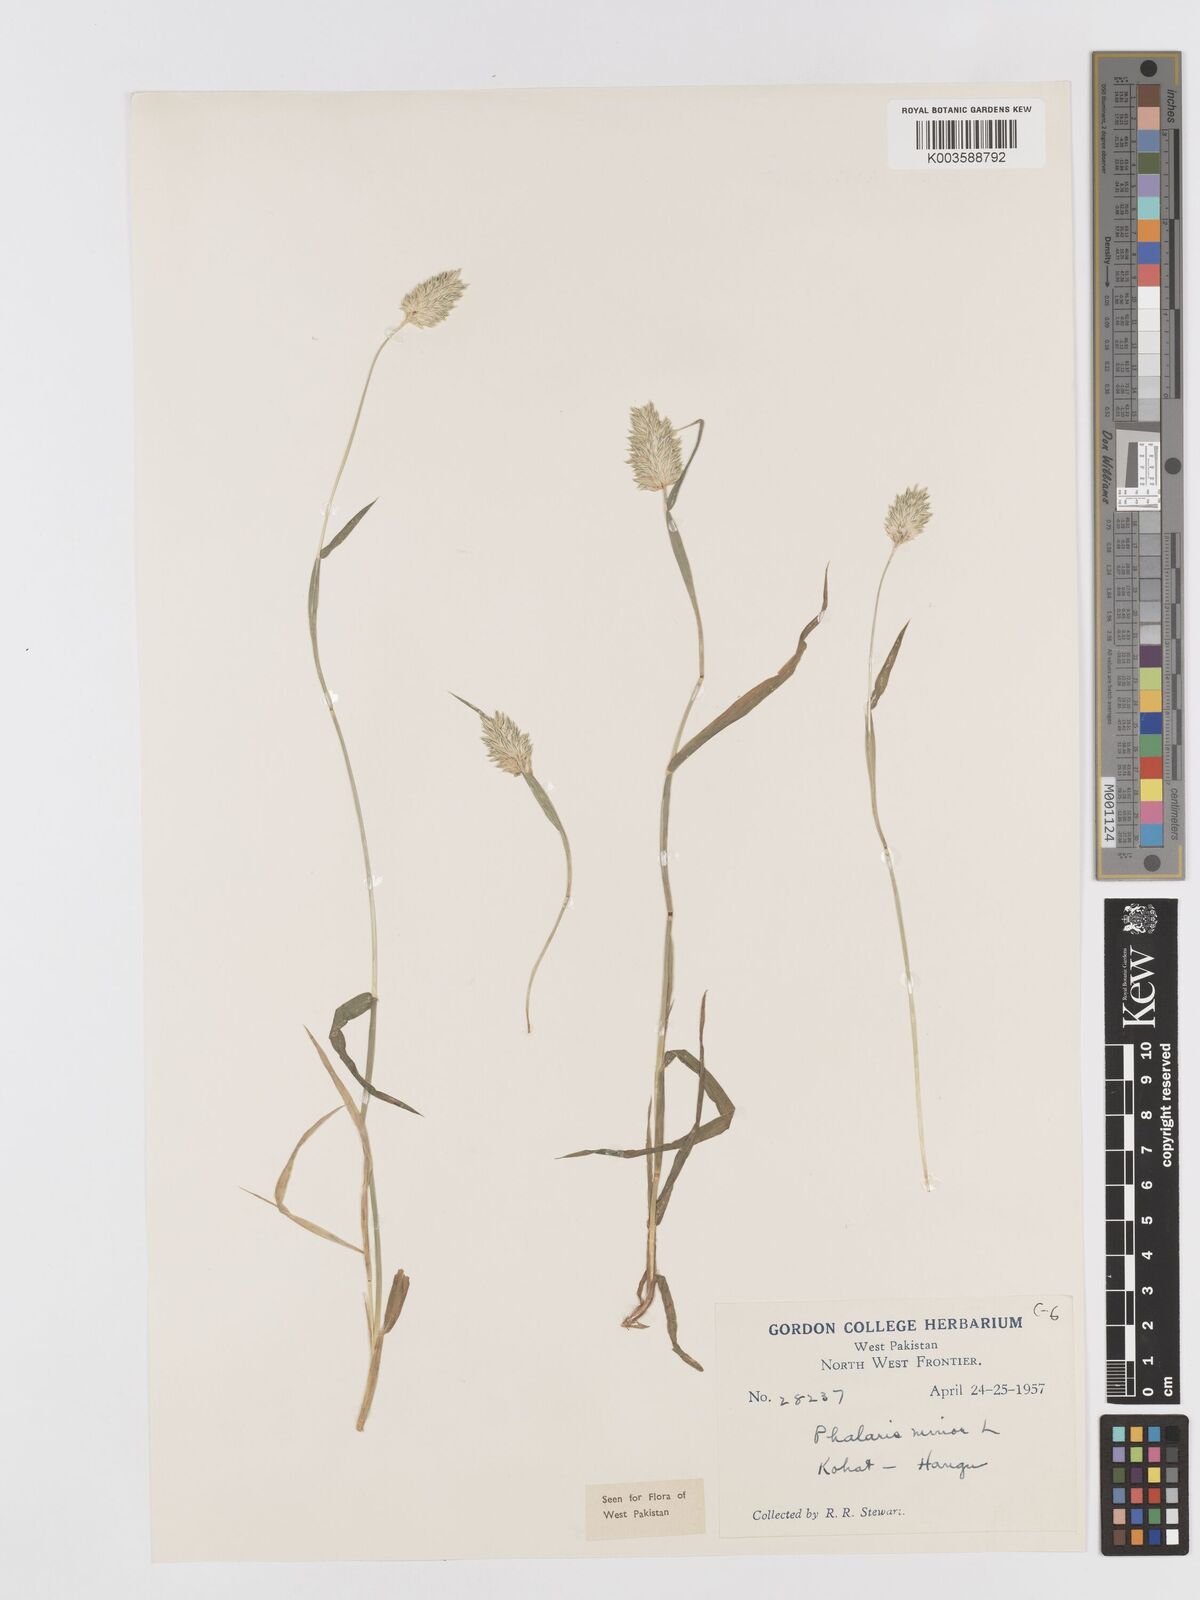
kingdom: Plantae
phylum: Tracheophyta
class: Liliopsida
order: Poales
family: Poaceae
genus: Phalaris
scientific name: Phalaris minor
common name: Littleseed canarygrass
